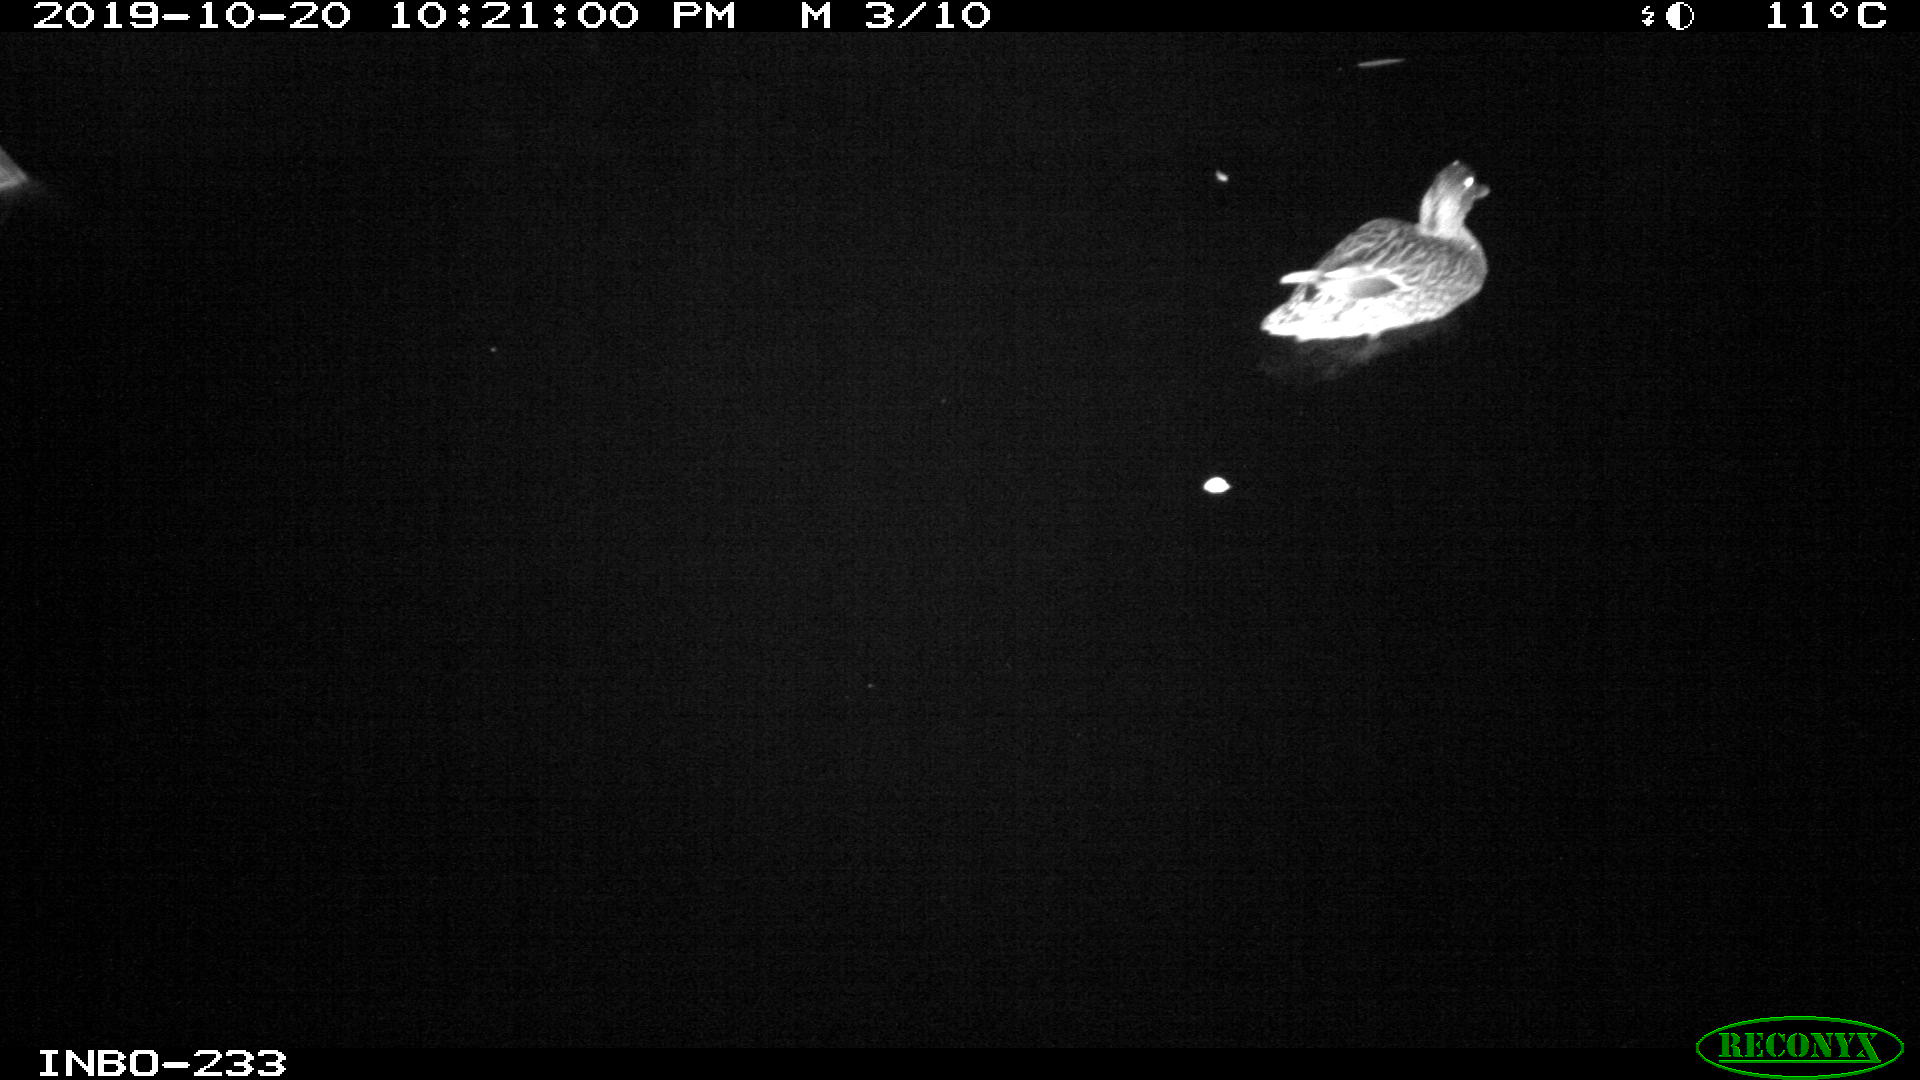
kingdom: Animalia
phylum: Chordata
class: Aves
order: Anseriformes
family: Anatidae
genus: Anas
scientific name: Anas platyrhynchos
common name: Mallard
